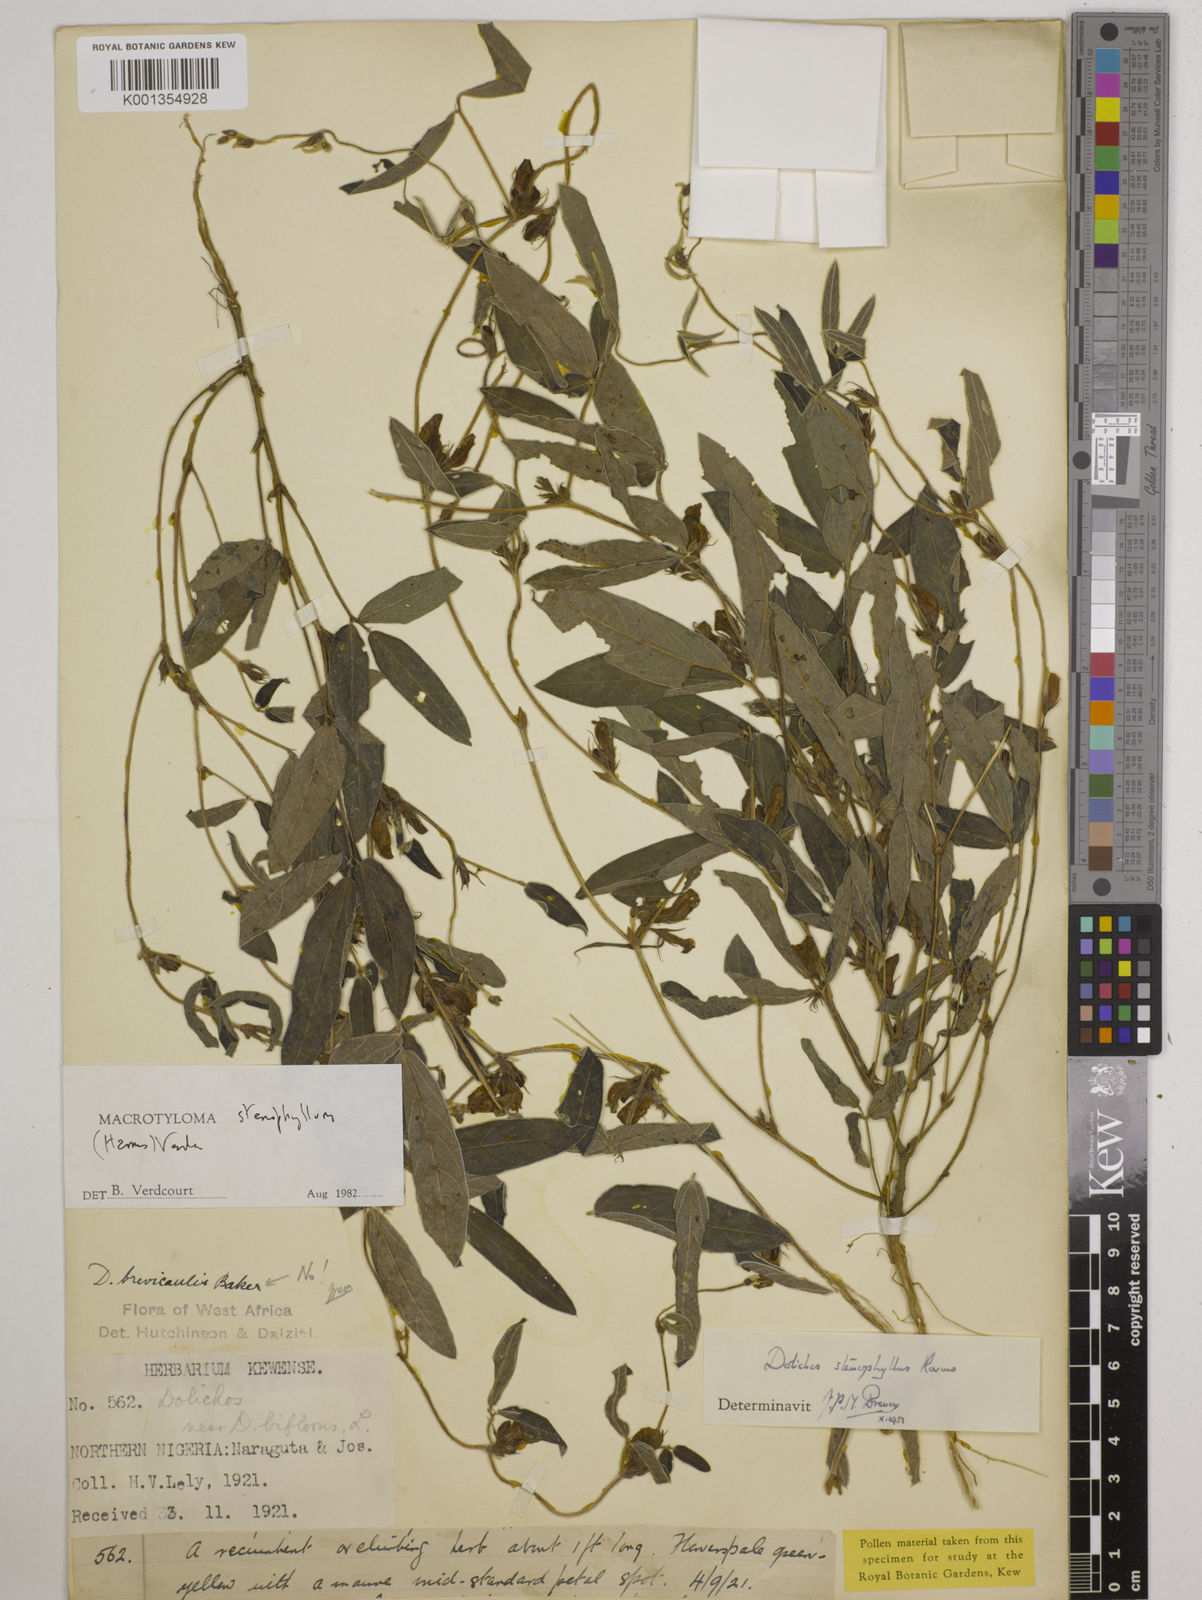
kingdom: Plantae
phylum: Tracheophyta
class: Magnoliopsida
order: Fabales
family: Fabaceae
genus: Macrotyloma
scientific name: Macrotyloma stenophyllum
